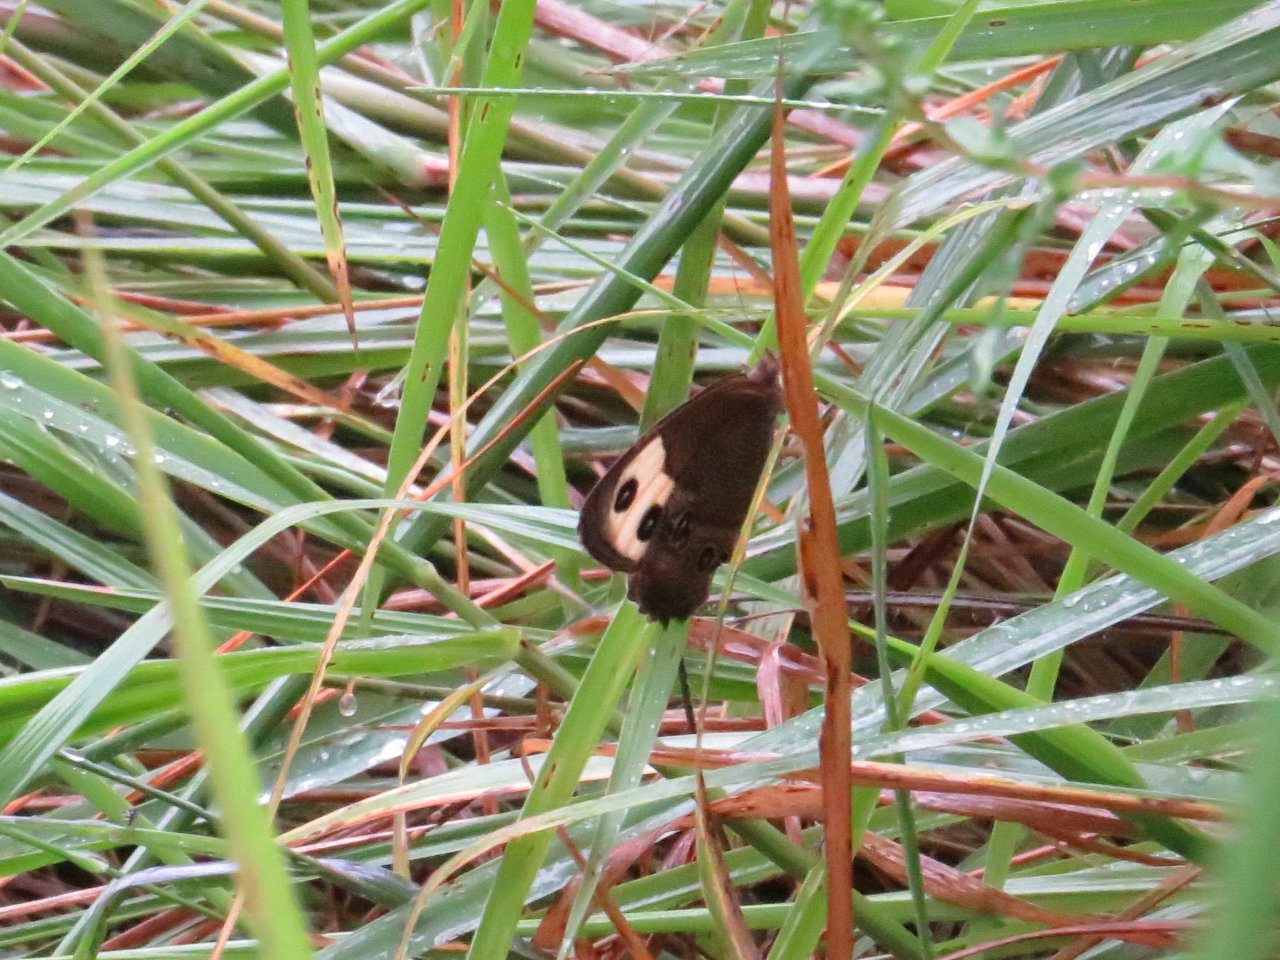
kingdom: Animalia
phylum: Arthropoda
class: Insecta
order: Lepidoptera
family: Nymphalidae
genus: Cercyonis
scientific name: Cercyonis pegala
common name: Common Wood-Nymph
